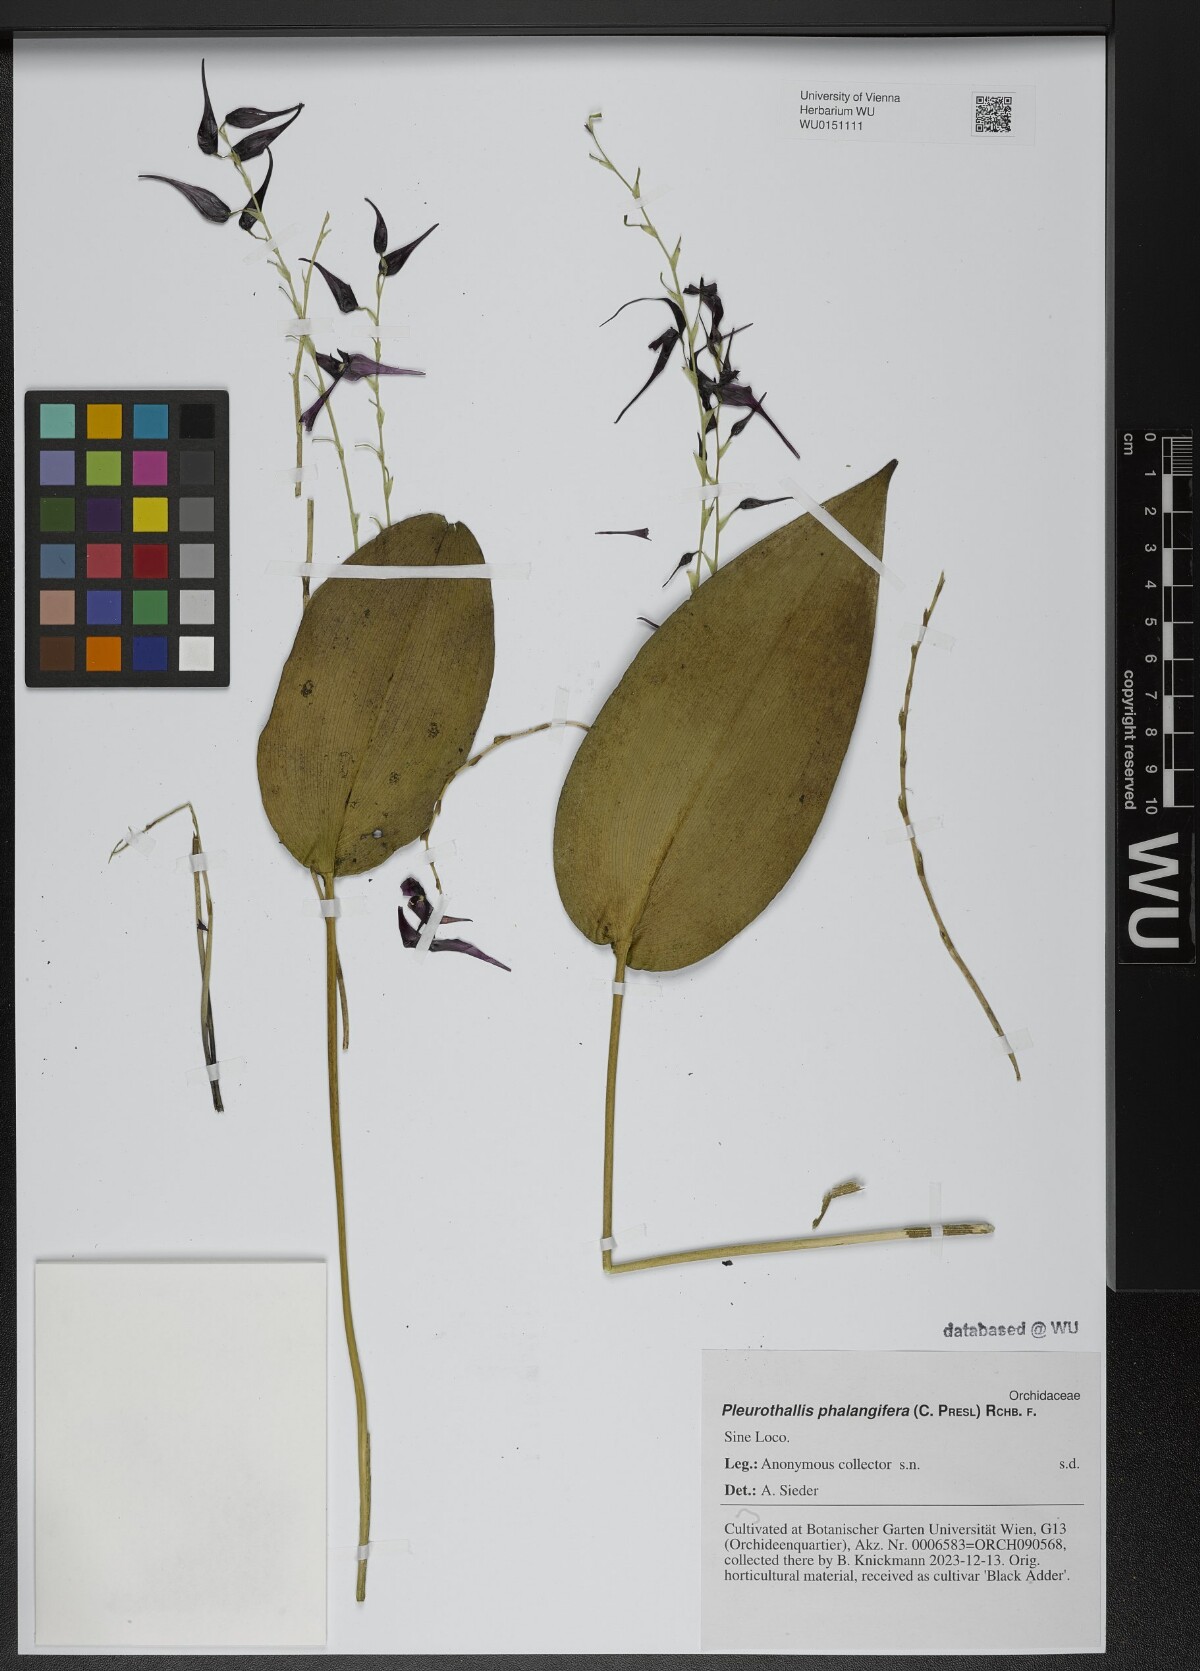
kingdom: Plantae
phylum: Tracheophyta
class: Liliopsida
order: Asparagales
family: Orchidaceae
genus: Pleurothallis
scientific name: Pleurothallis phalangifera
